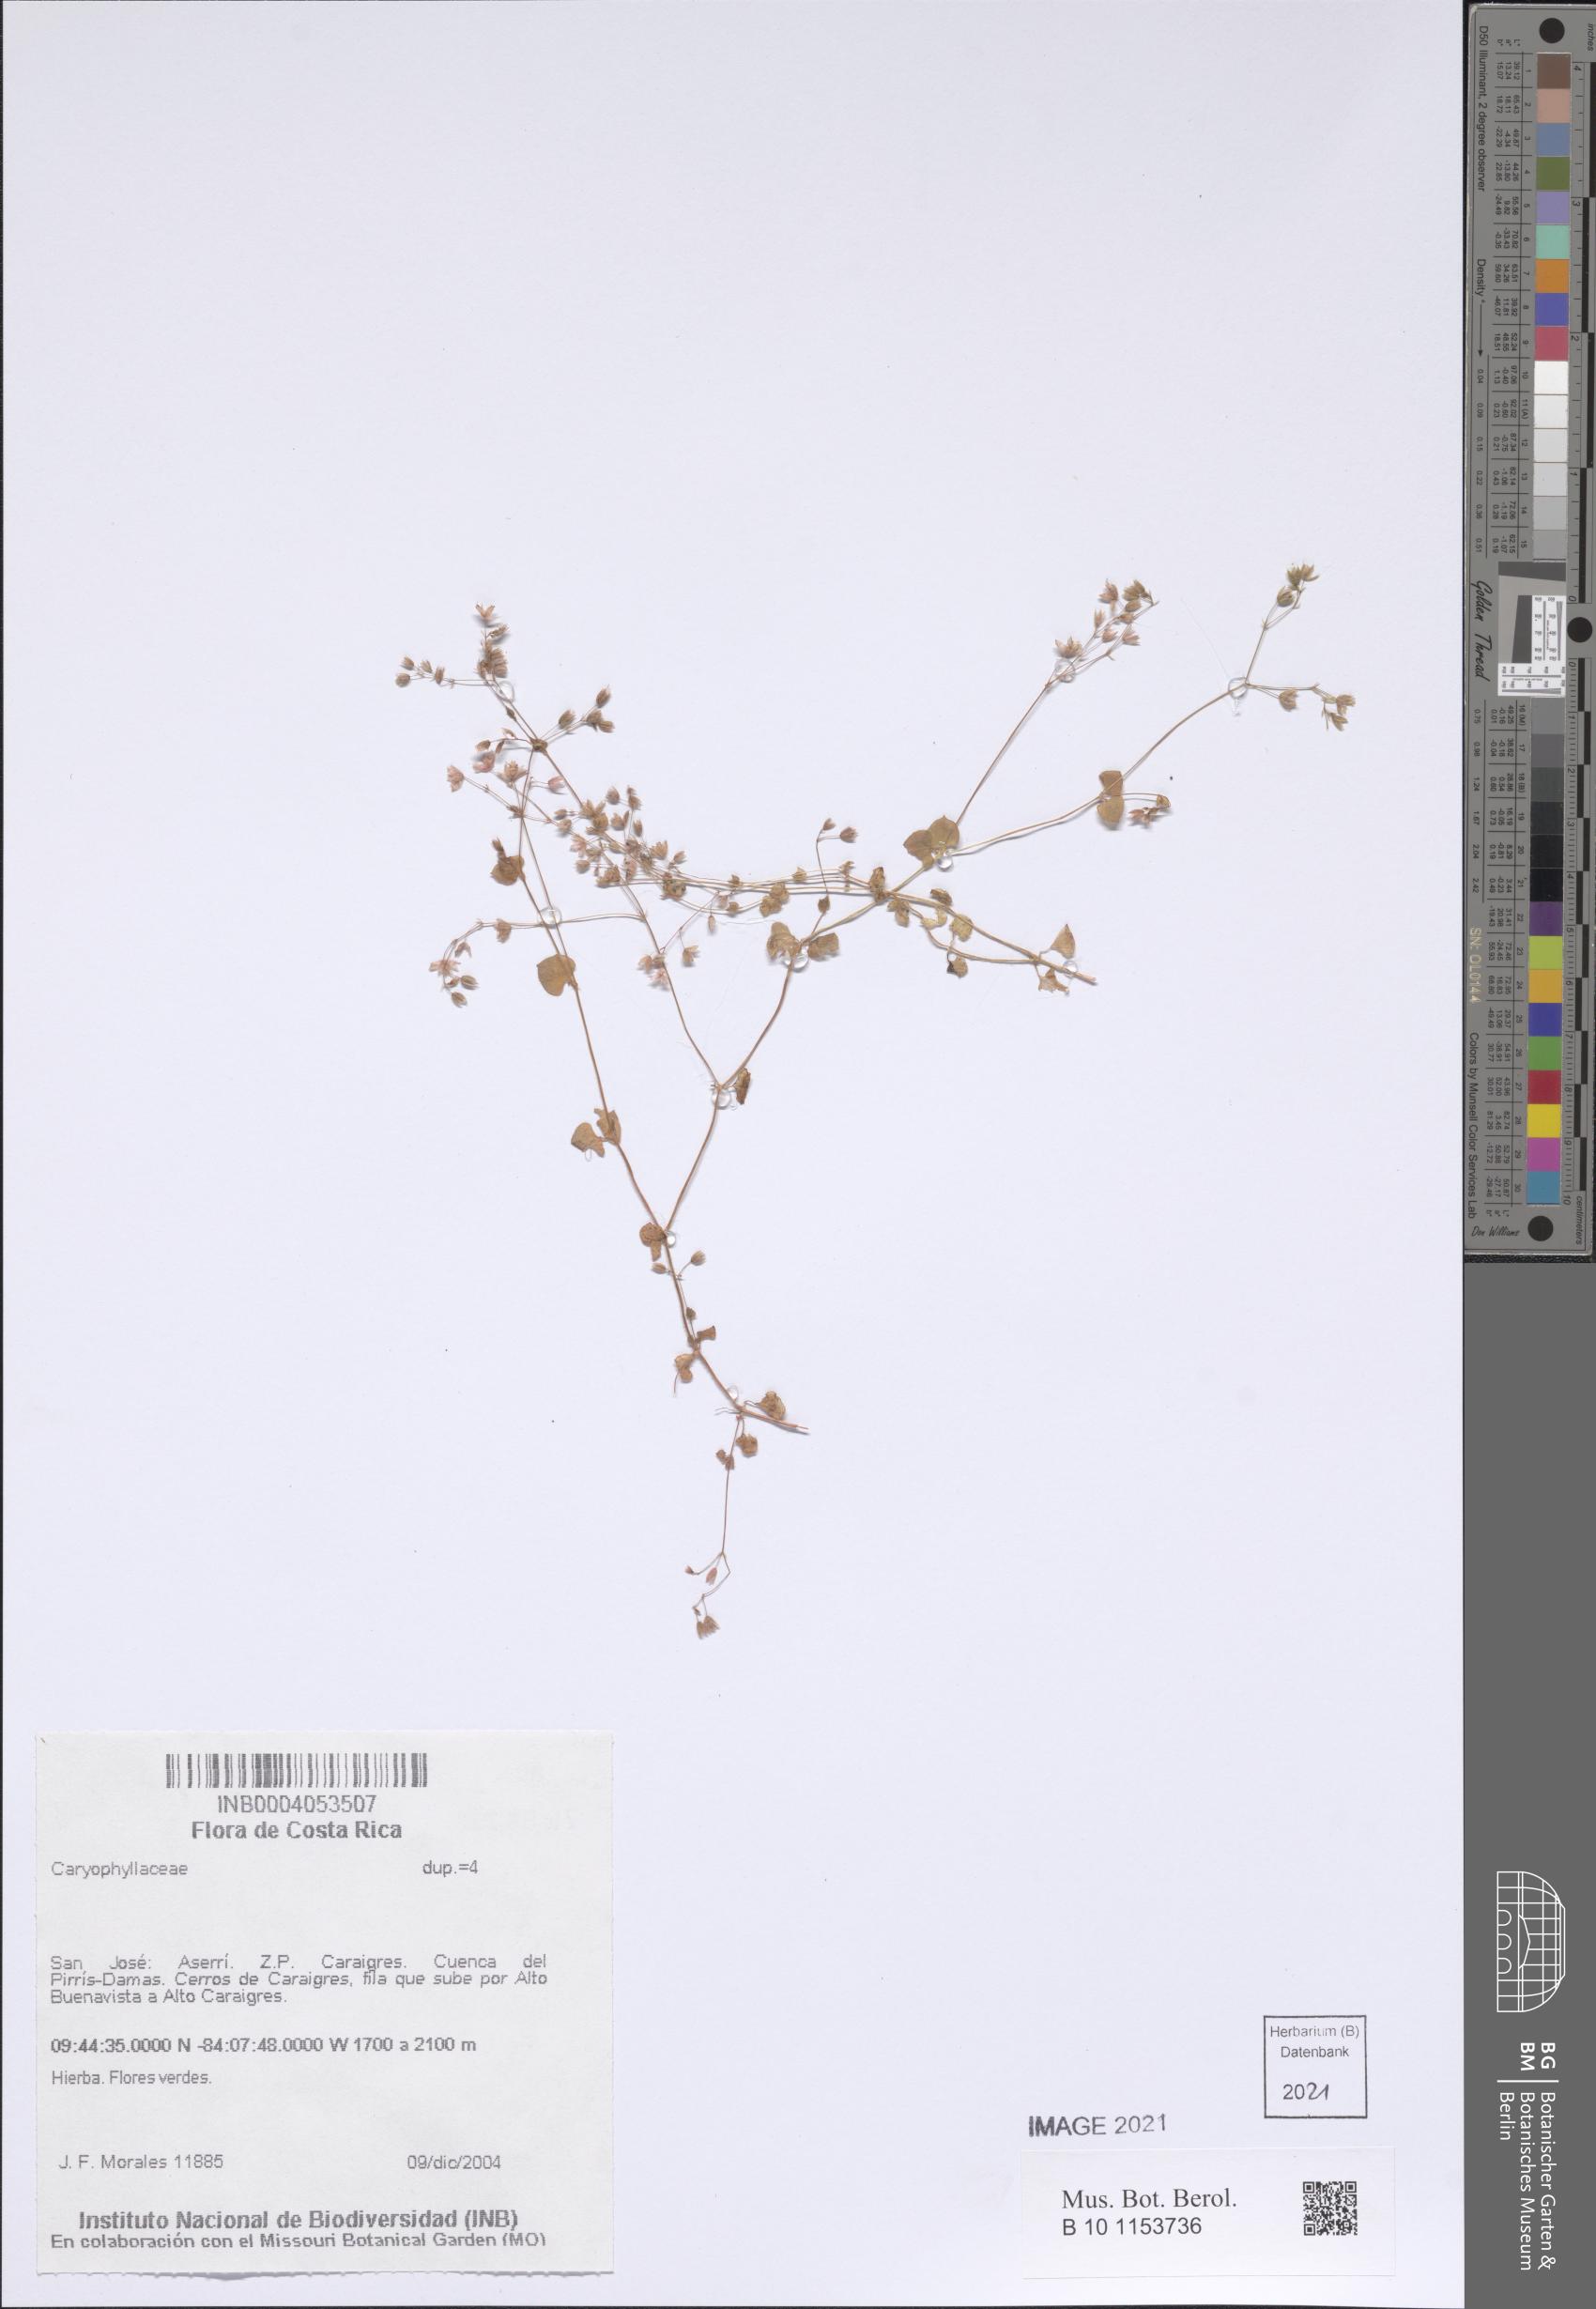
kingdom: Plantae
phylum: Tracheophyta
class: Magnoliopsida
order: Caryophyllales
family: Caryophyllaceae
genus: Drymaria
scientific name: Drymaria villosa
